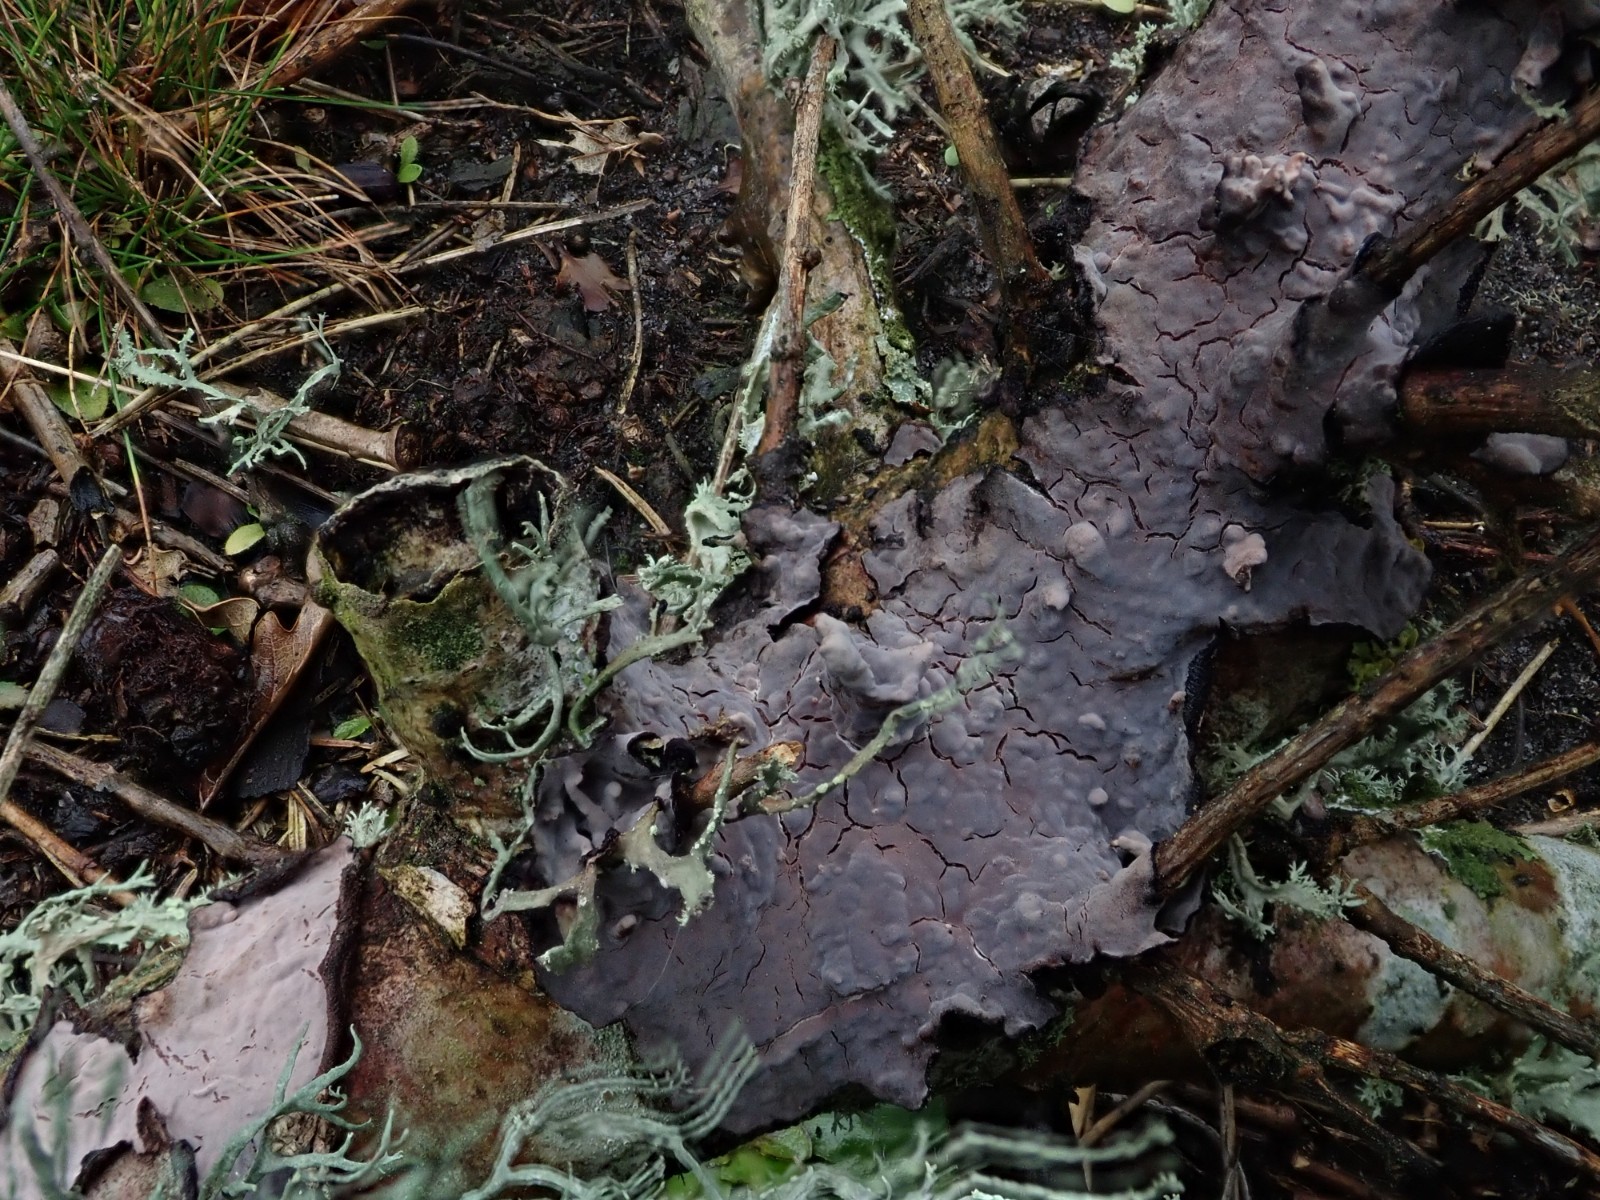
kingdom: Fungi
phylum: Basidiomycota
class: Agaricomycetes
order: Russulales
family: Peniophoraceae
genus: Peniophora
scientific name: Peniophora quercina
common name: ege-voksskind
